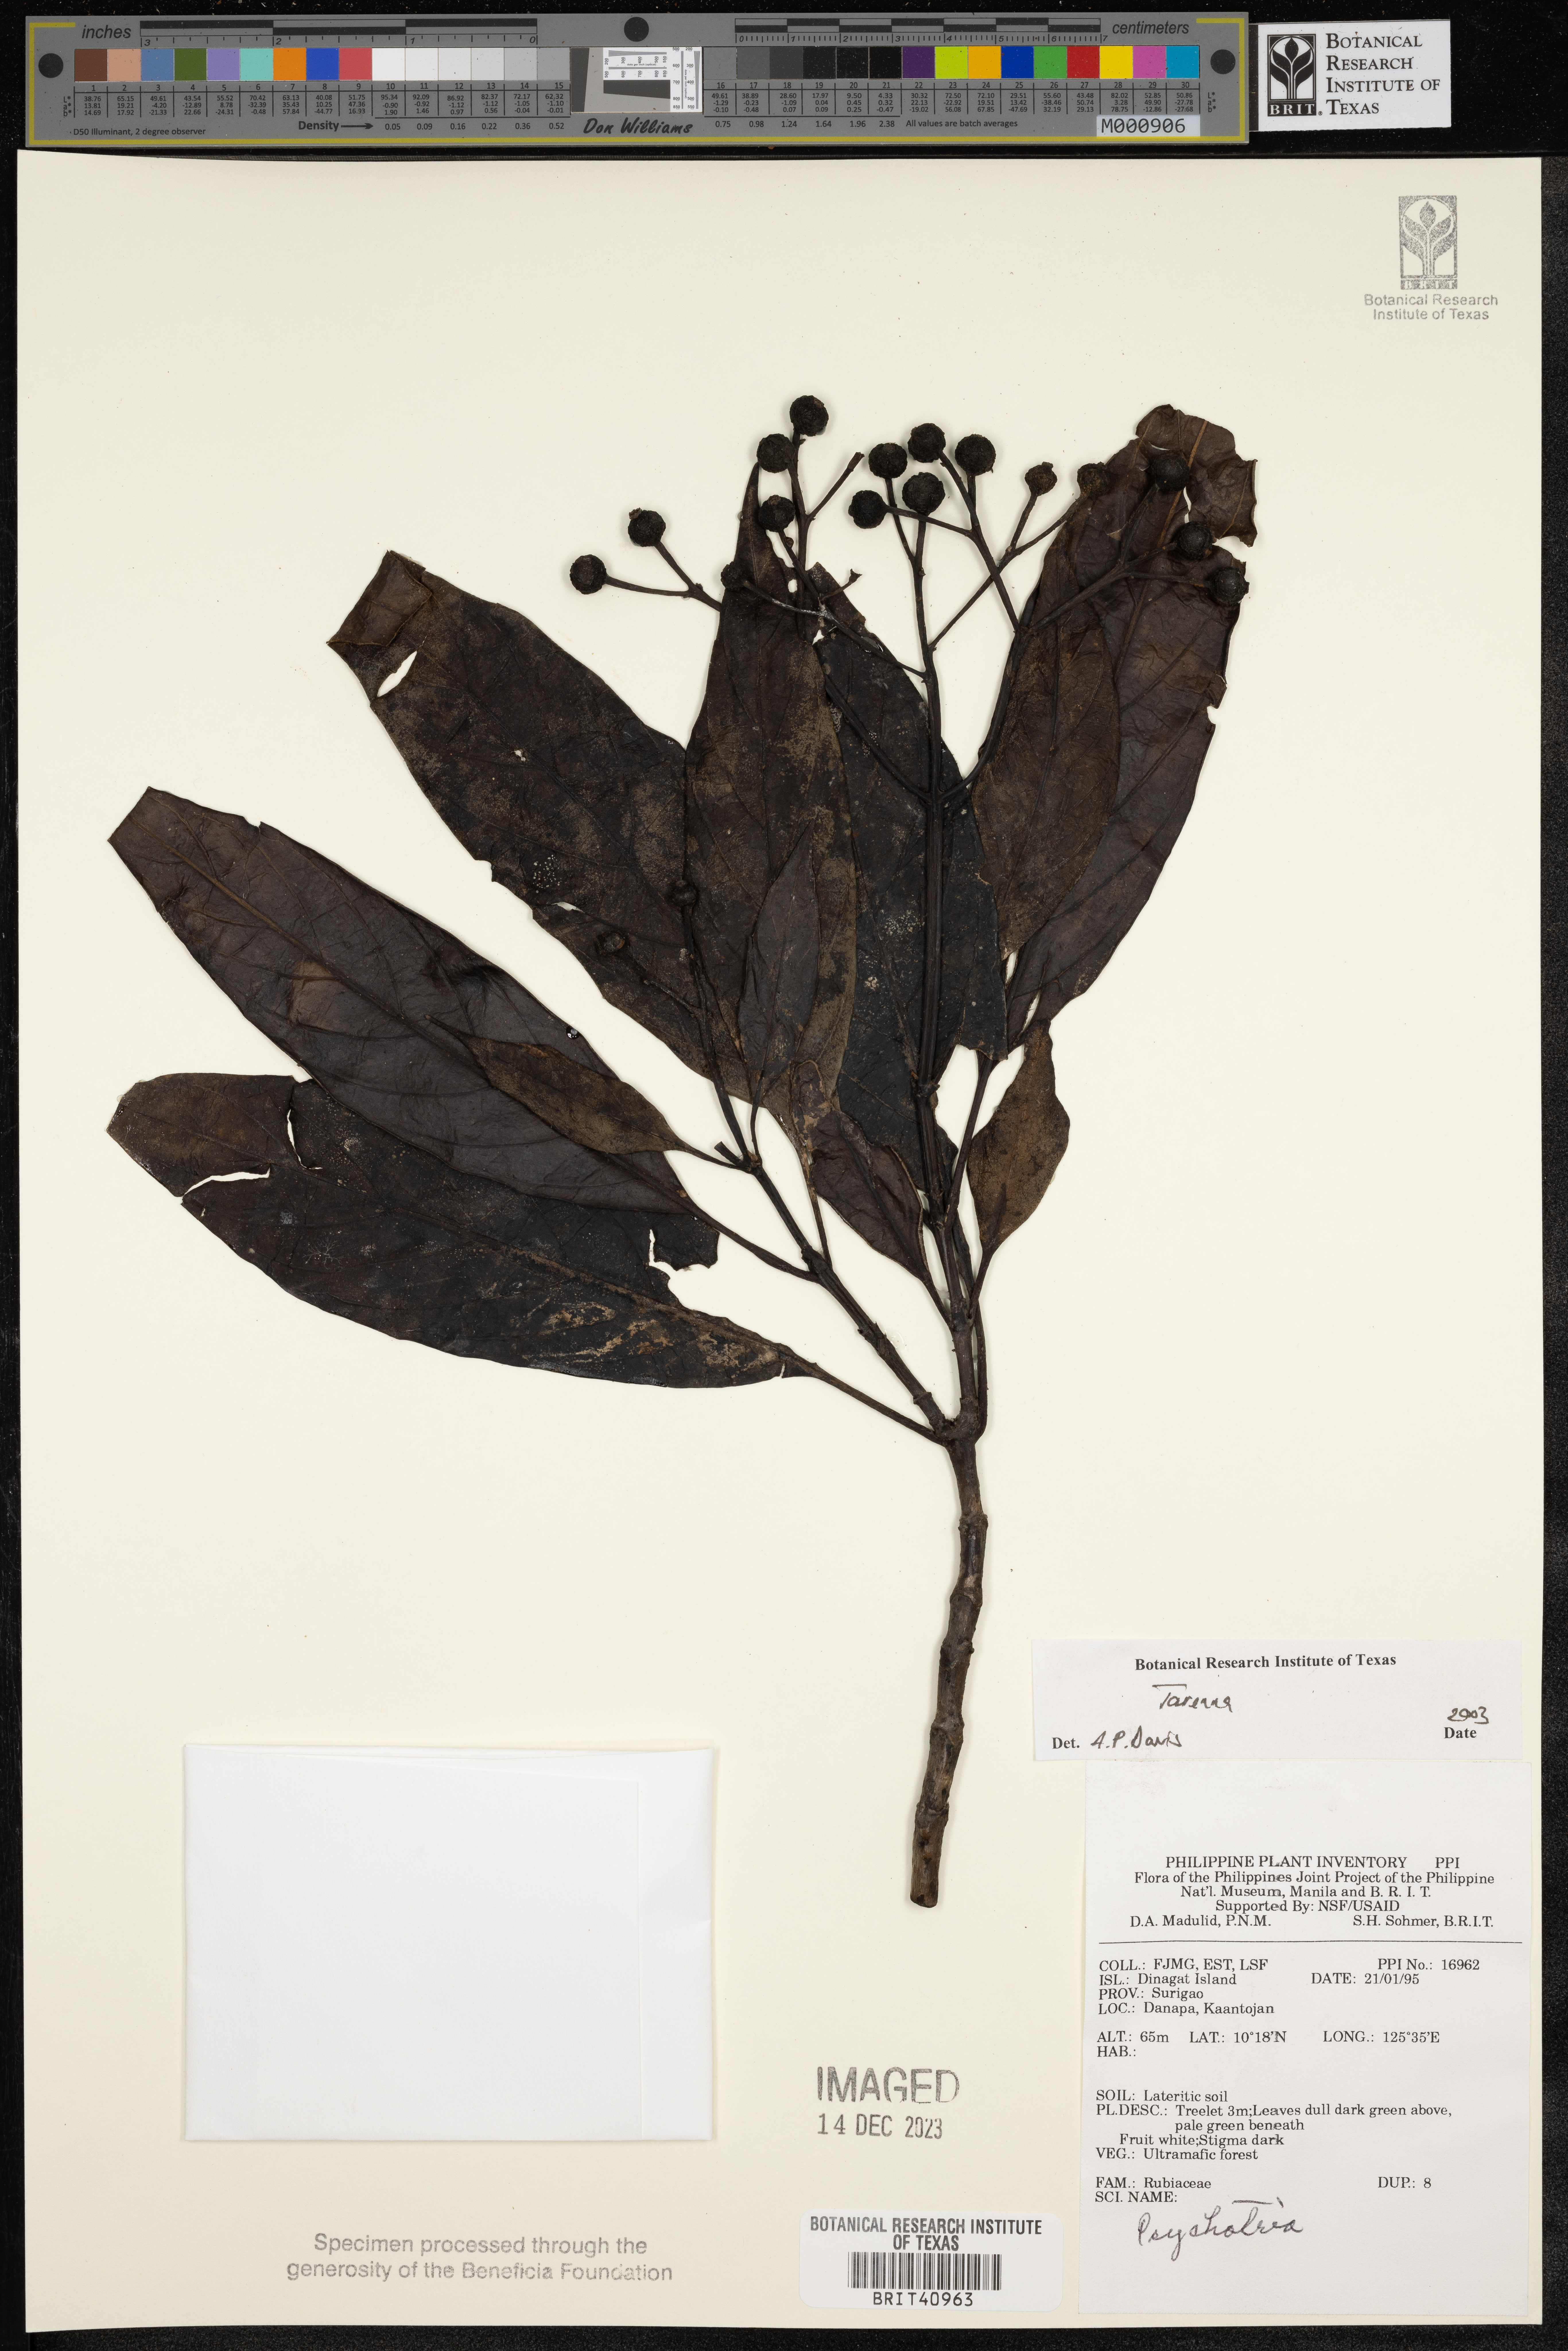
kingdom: Plantae
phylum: Tracheophyta
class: Magnoliopsida
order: Gentianales
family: Rubiaceae
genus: Tarenna
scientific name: Tarenna
